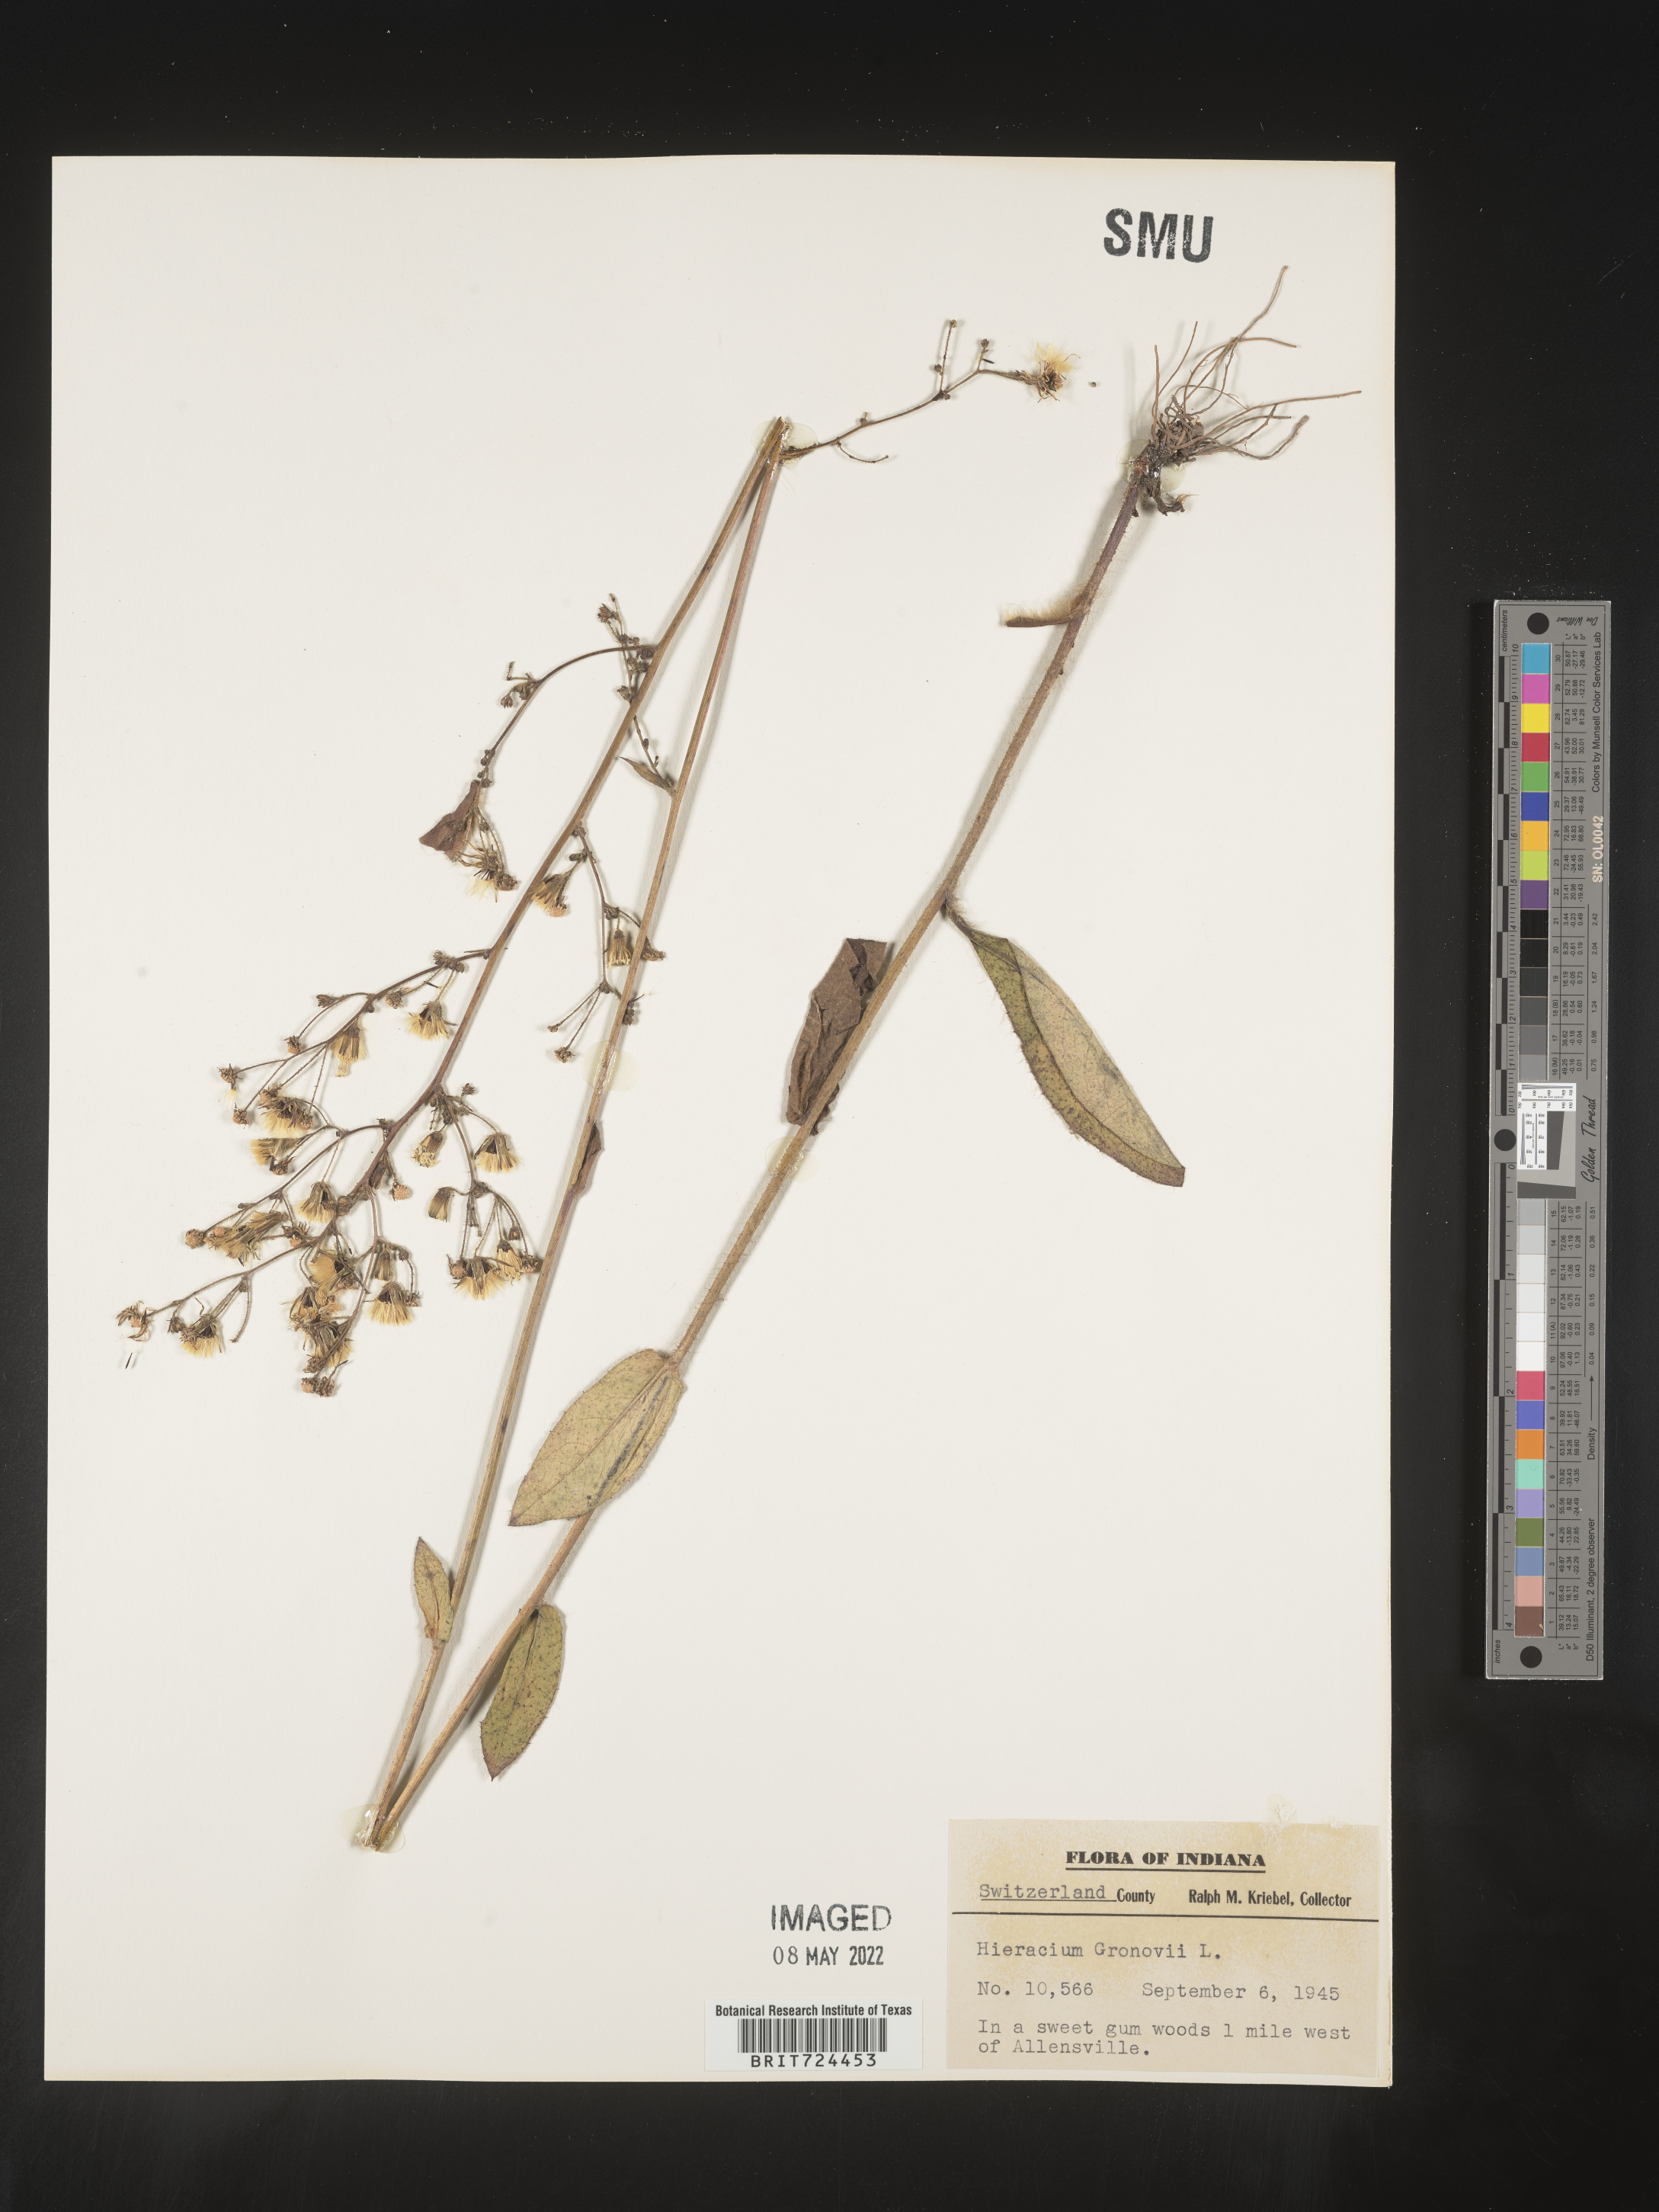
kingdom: Plantae
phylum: Tracheophyta
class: Magnoliopsida
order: Asterales
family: Asteraceae
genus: Hieracium
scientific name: Hieracium gronovii
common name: Beaked hawkweed
